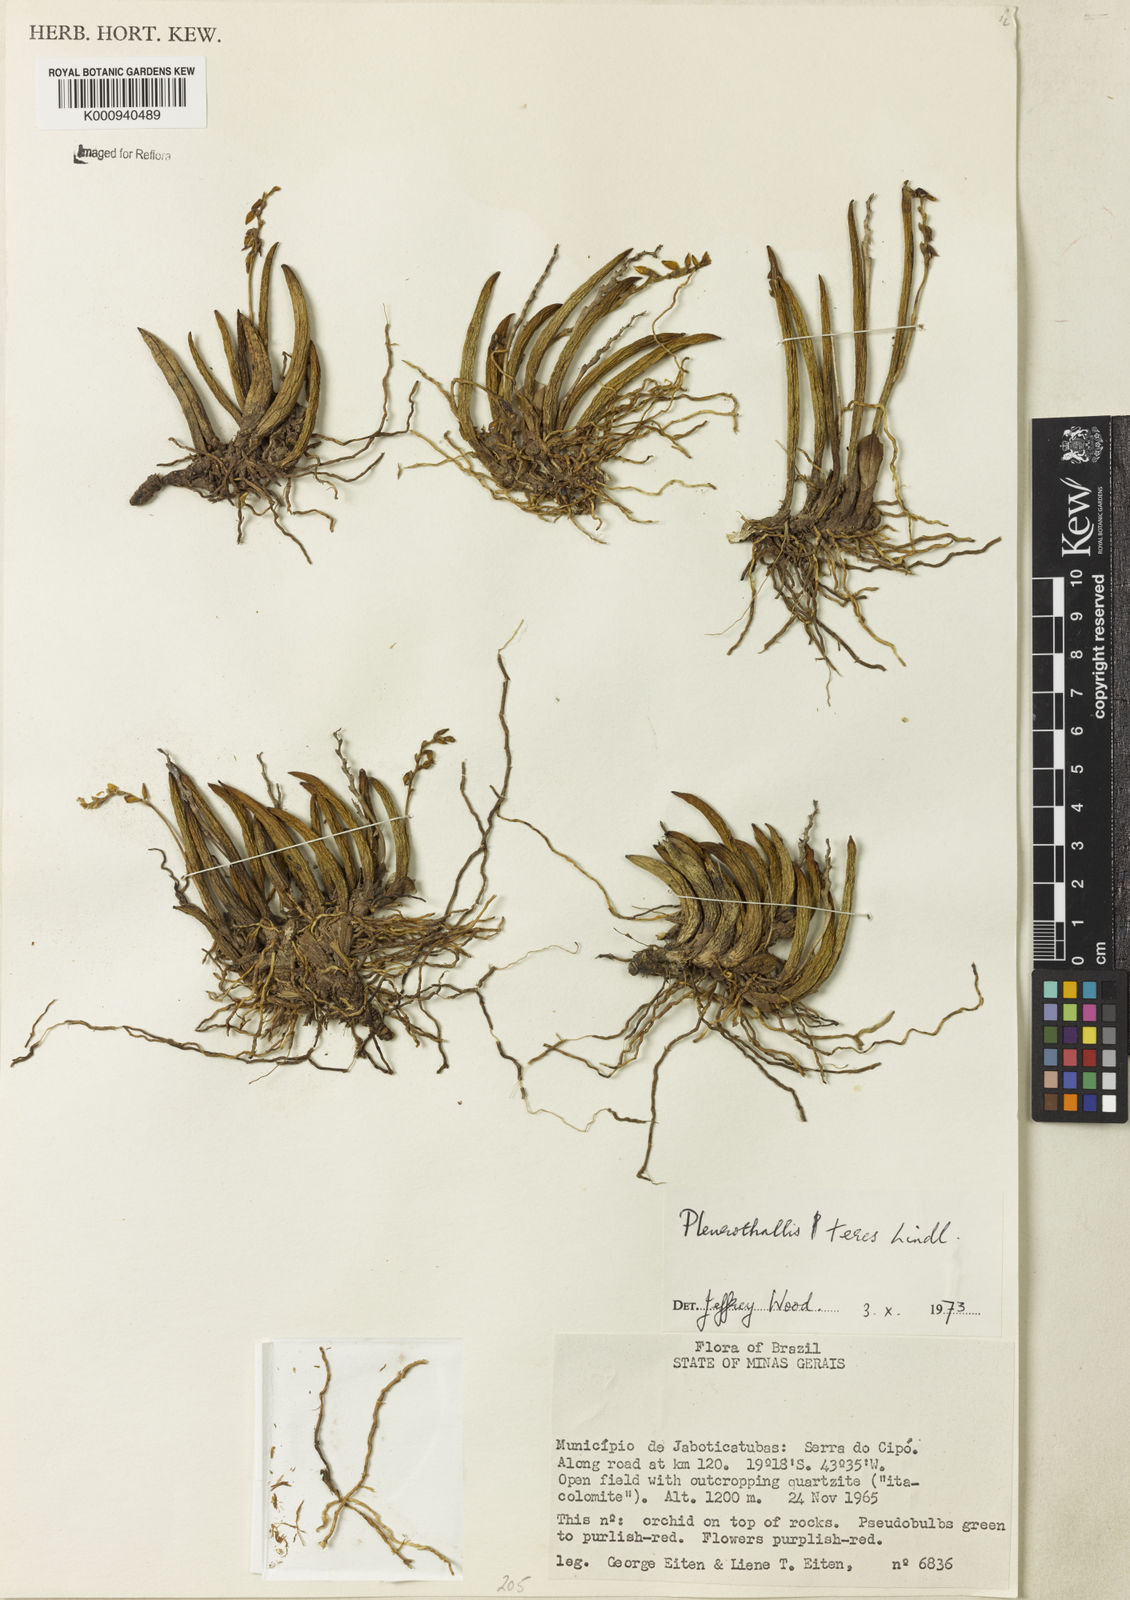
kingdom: Plantae
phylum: Tracheophyta
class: Liliopsida
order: Asparagales
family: Orchidaceae
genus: Acianthera
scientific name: Acianthera teres
